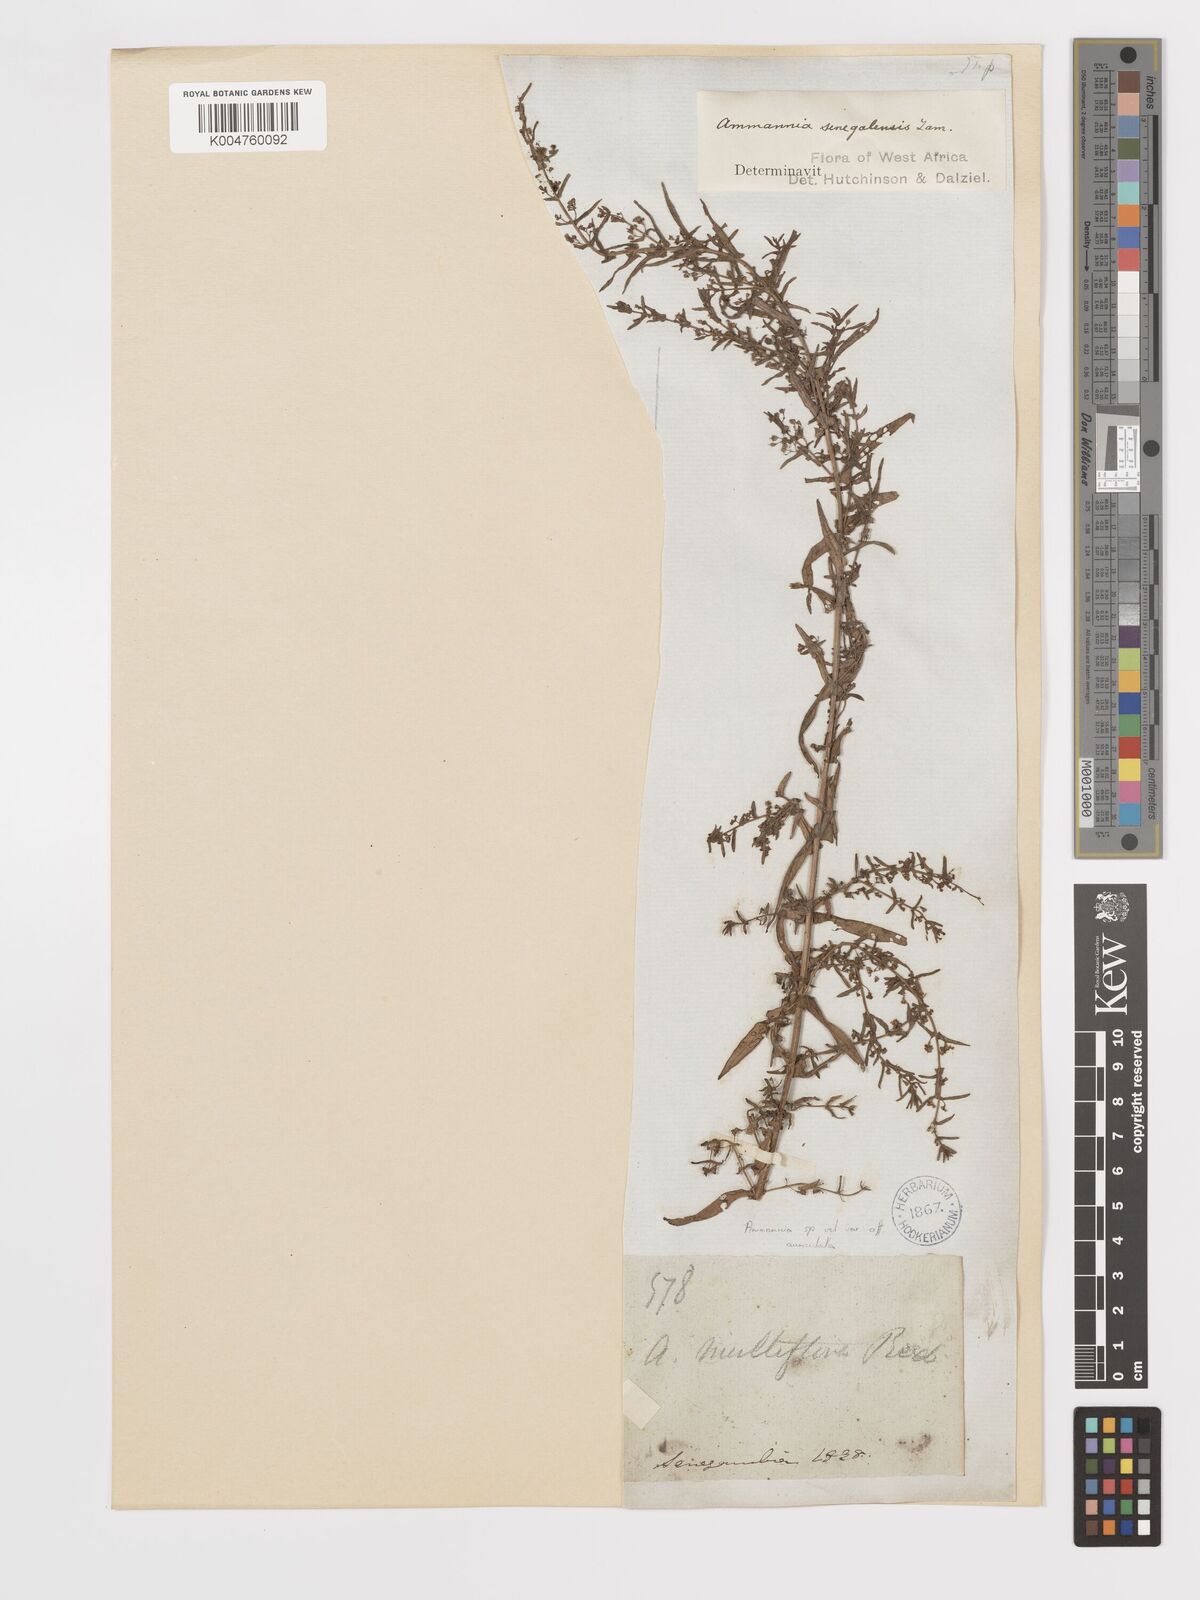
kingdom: Plantae
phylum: Tracheophyta
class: Magnoliopsida
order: Myrtales
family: Lythraceae
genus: Ammannia
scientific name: Ammannia auriculata
